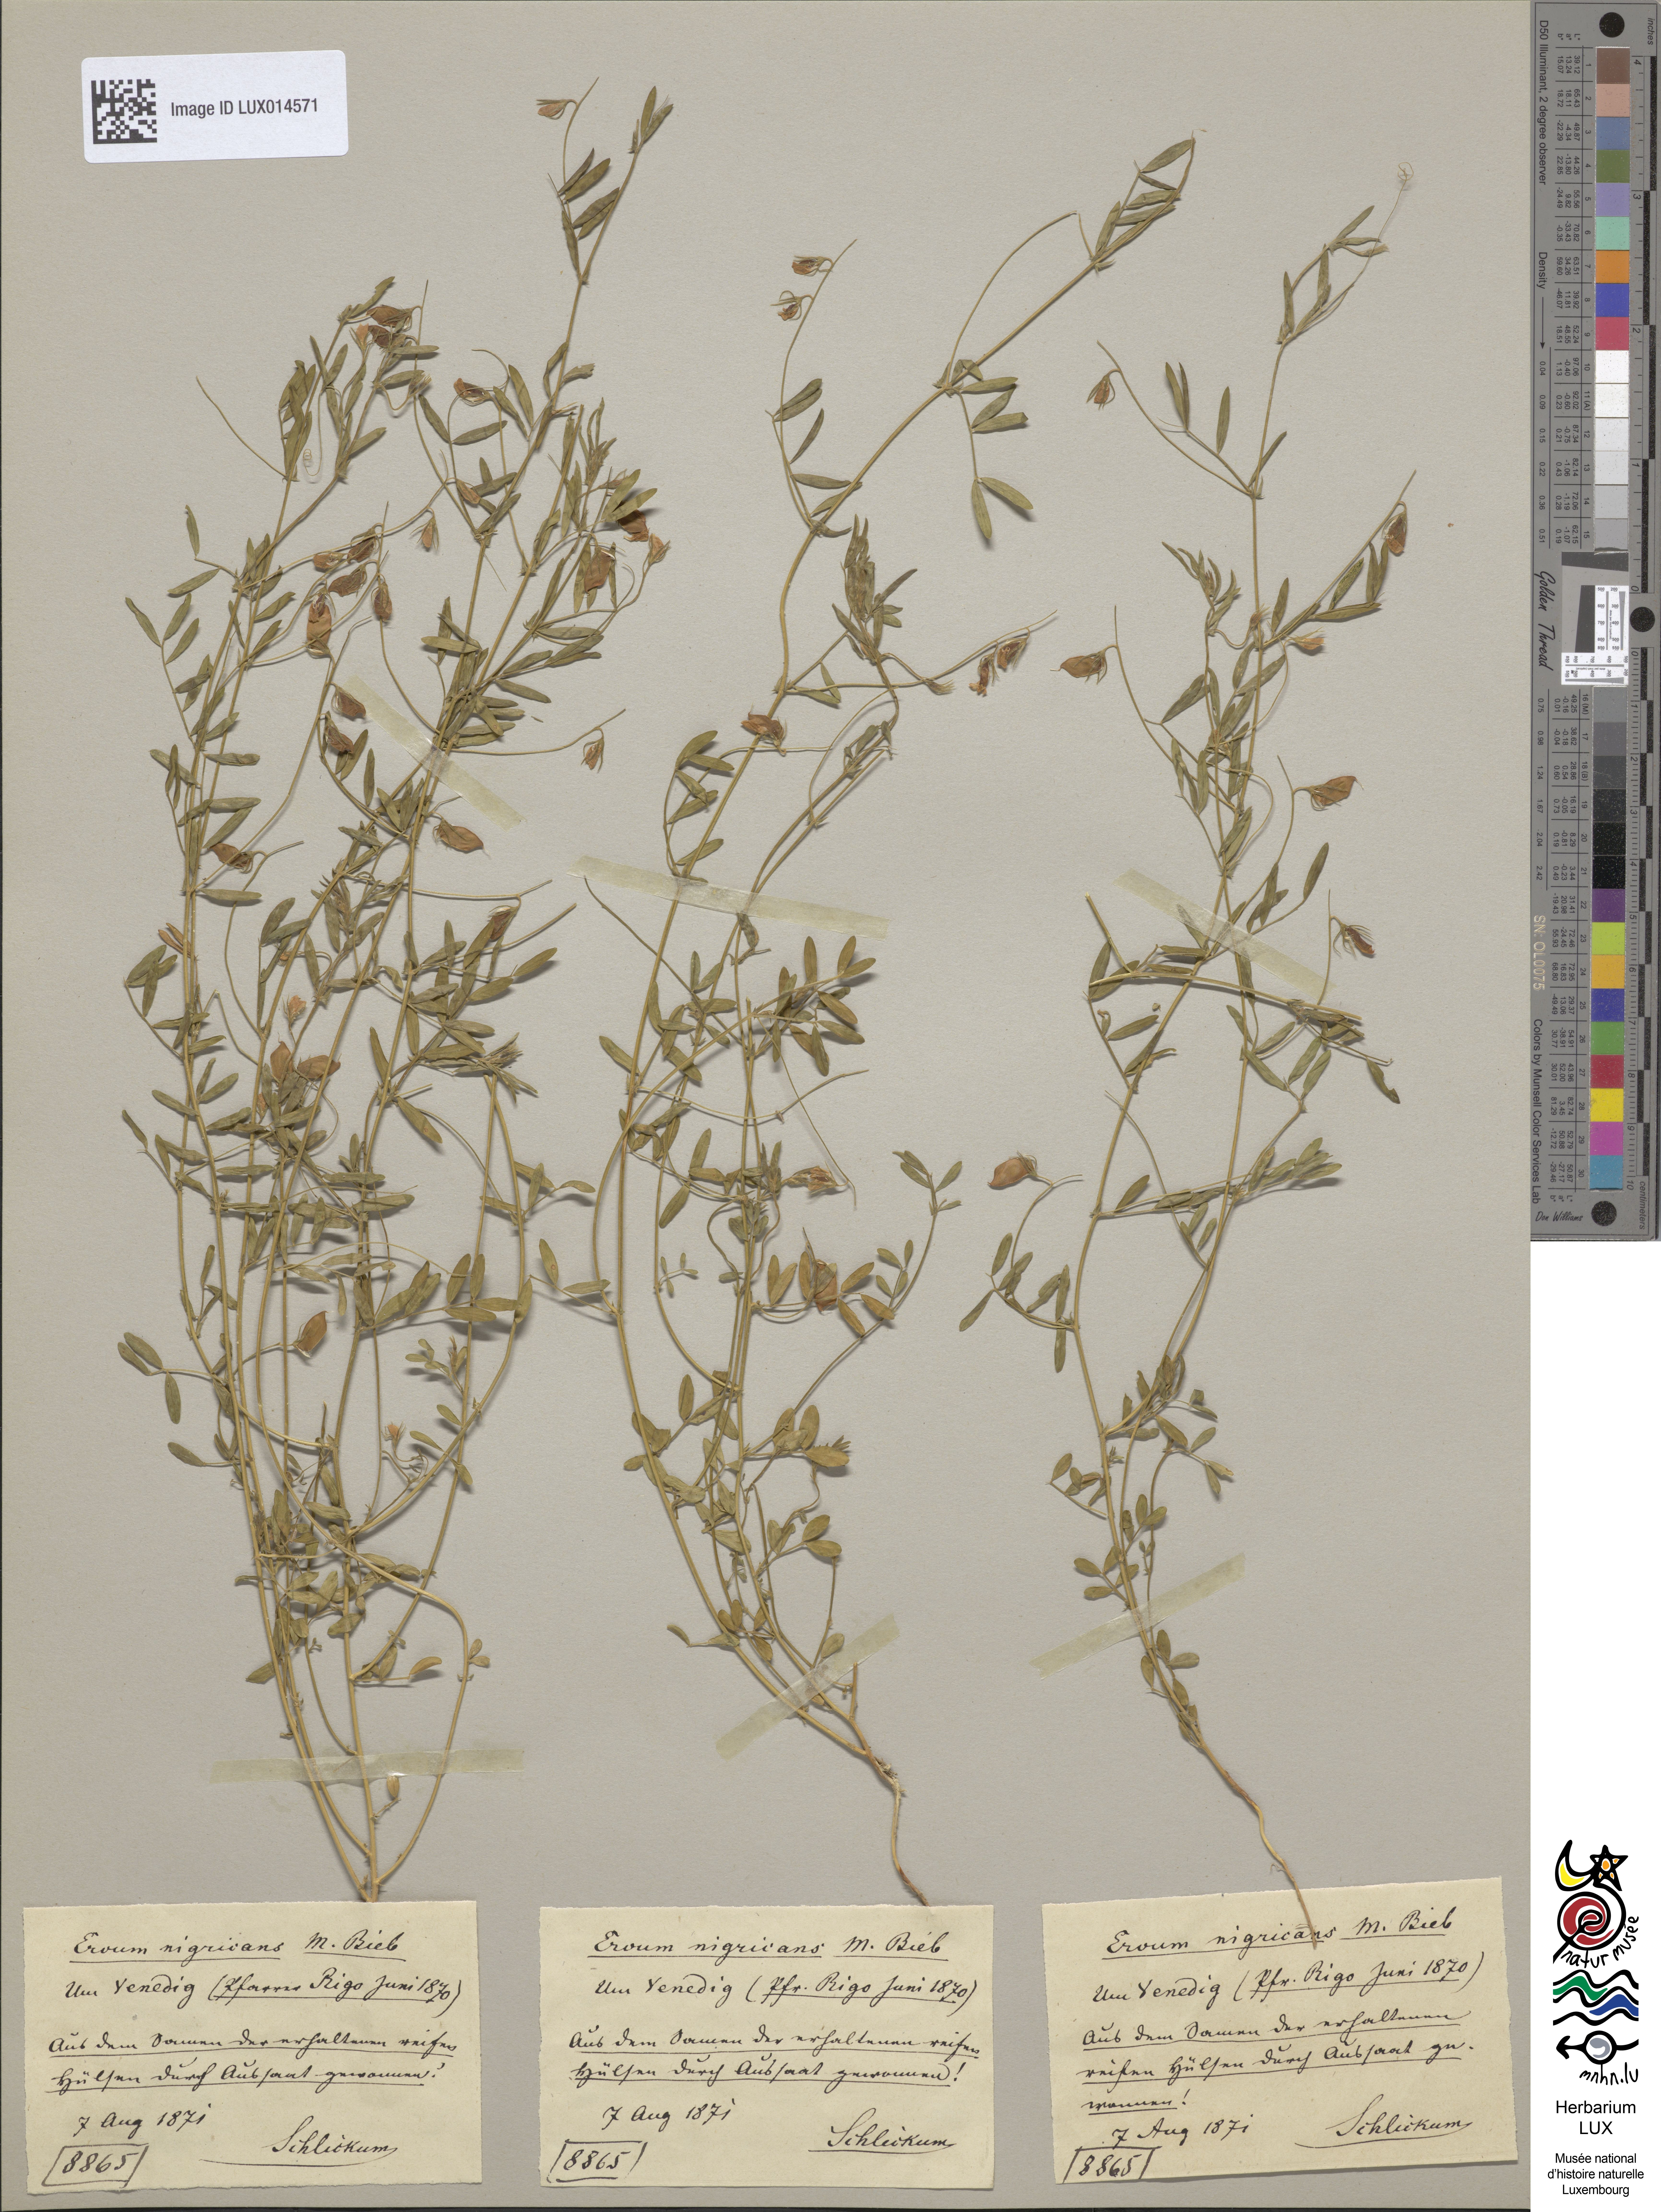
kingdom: Plantae
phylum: Tracheophyta
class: Magnoliopsida
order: Fabales
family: Fabaceae
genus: Vicia
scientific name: Vicia lentoides
